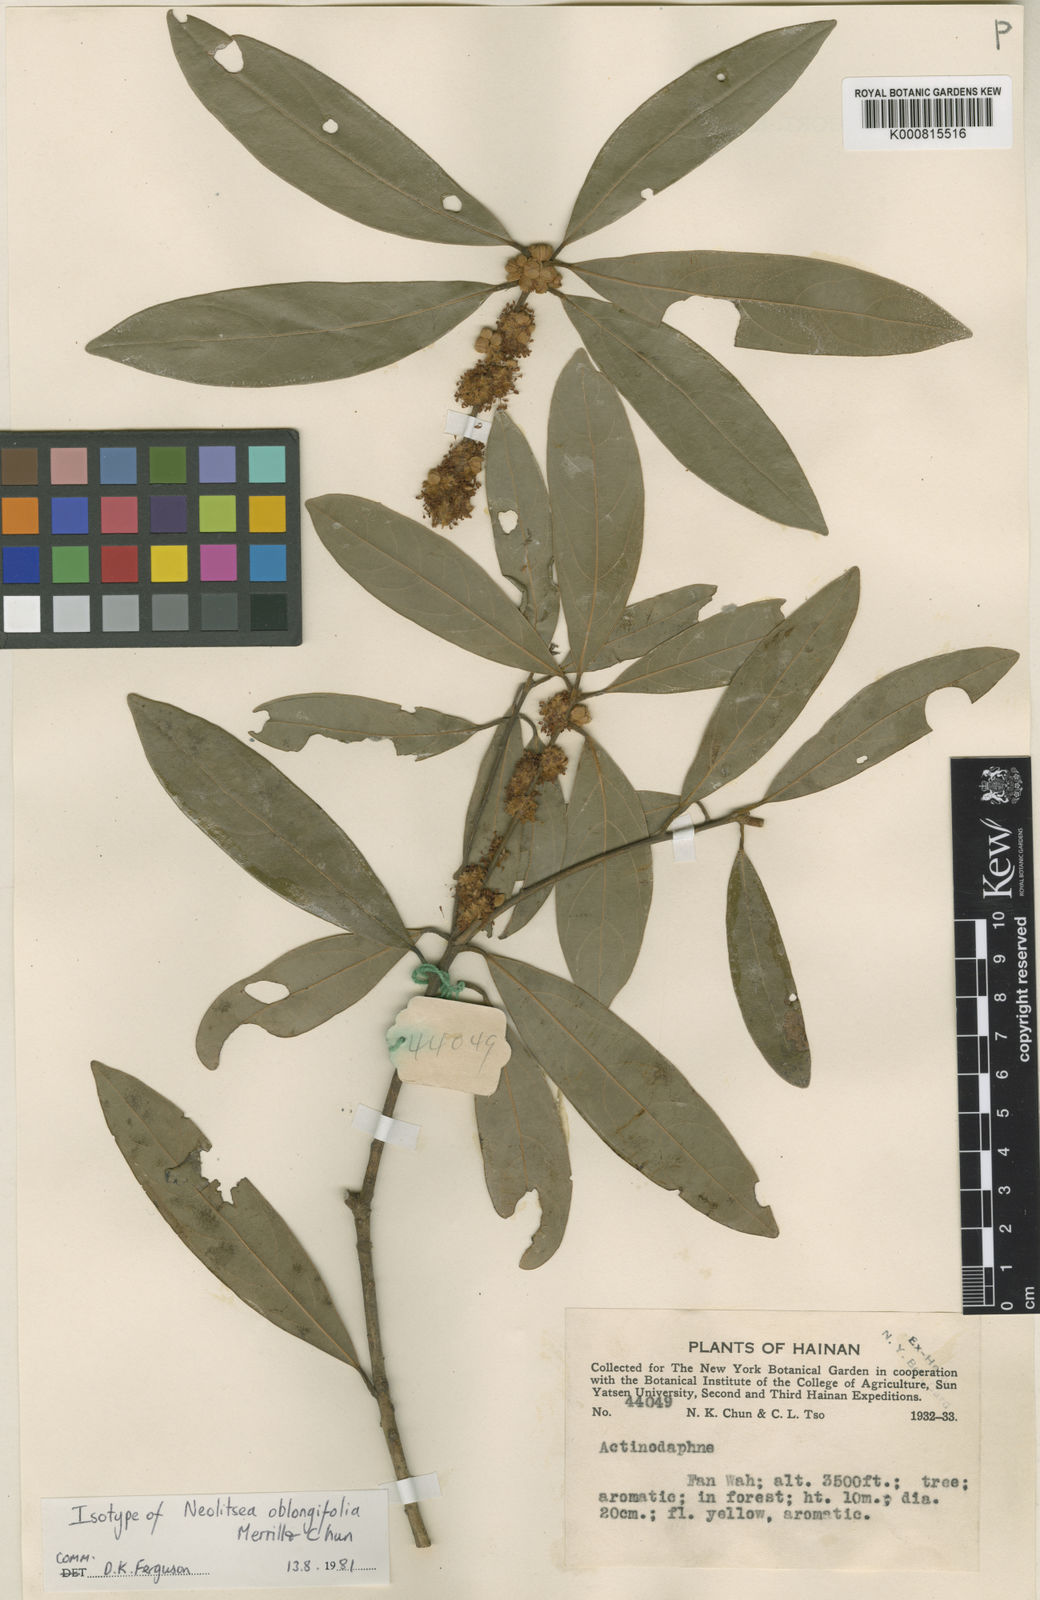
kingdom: Plantae
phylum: Tracheophyta
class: Magnoliopsida
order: Laurales
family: Lauraceae
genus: Neolitsea
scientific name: Neolitsea oblongifolia
